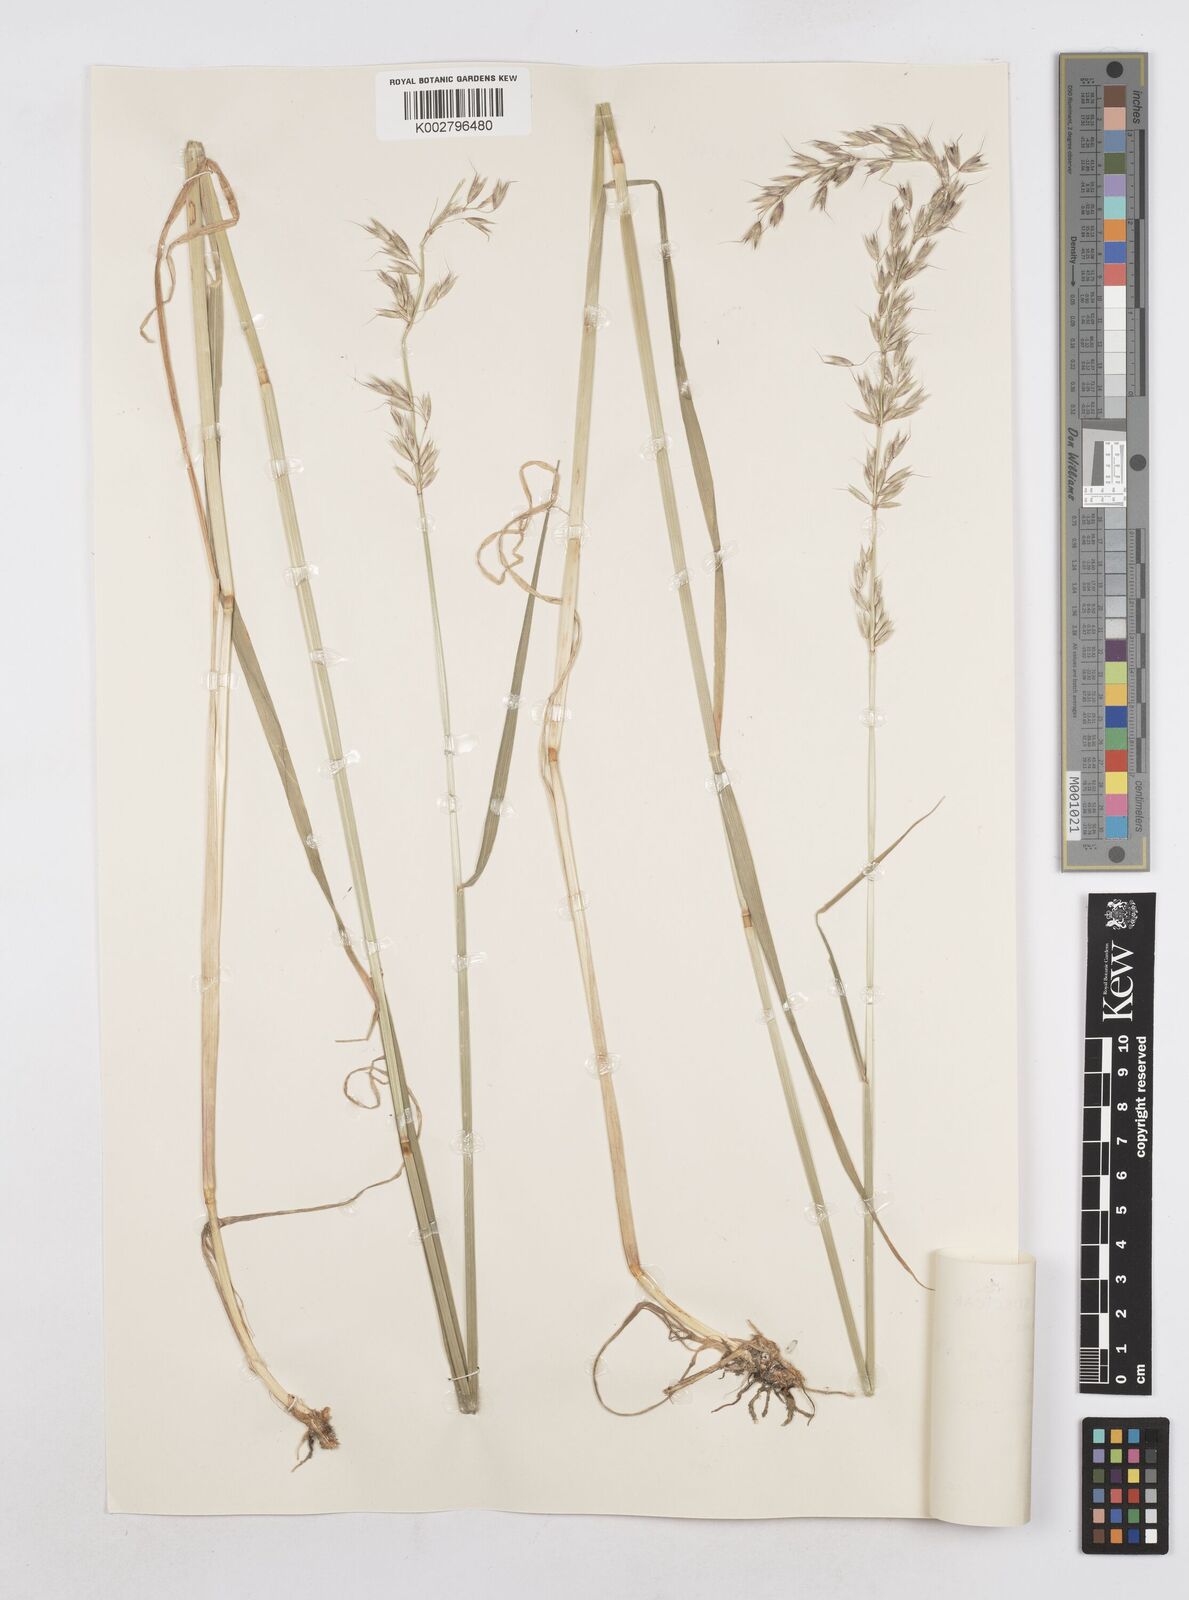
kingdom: Plantae
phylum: Tracheophyta
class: Liliopsida
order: Poales
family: Poaceae
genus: Arrhenatherum
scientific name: Arrhenatherum elatius
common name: Tall oatgrass
